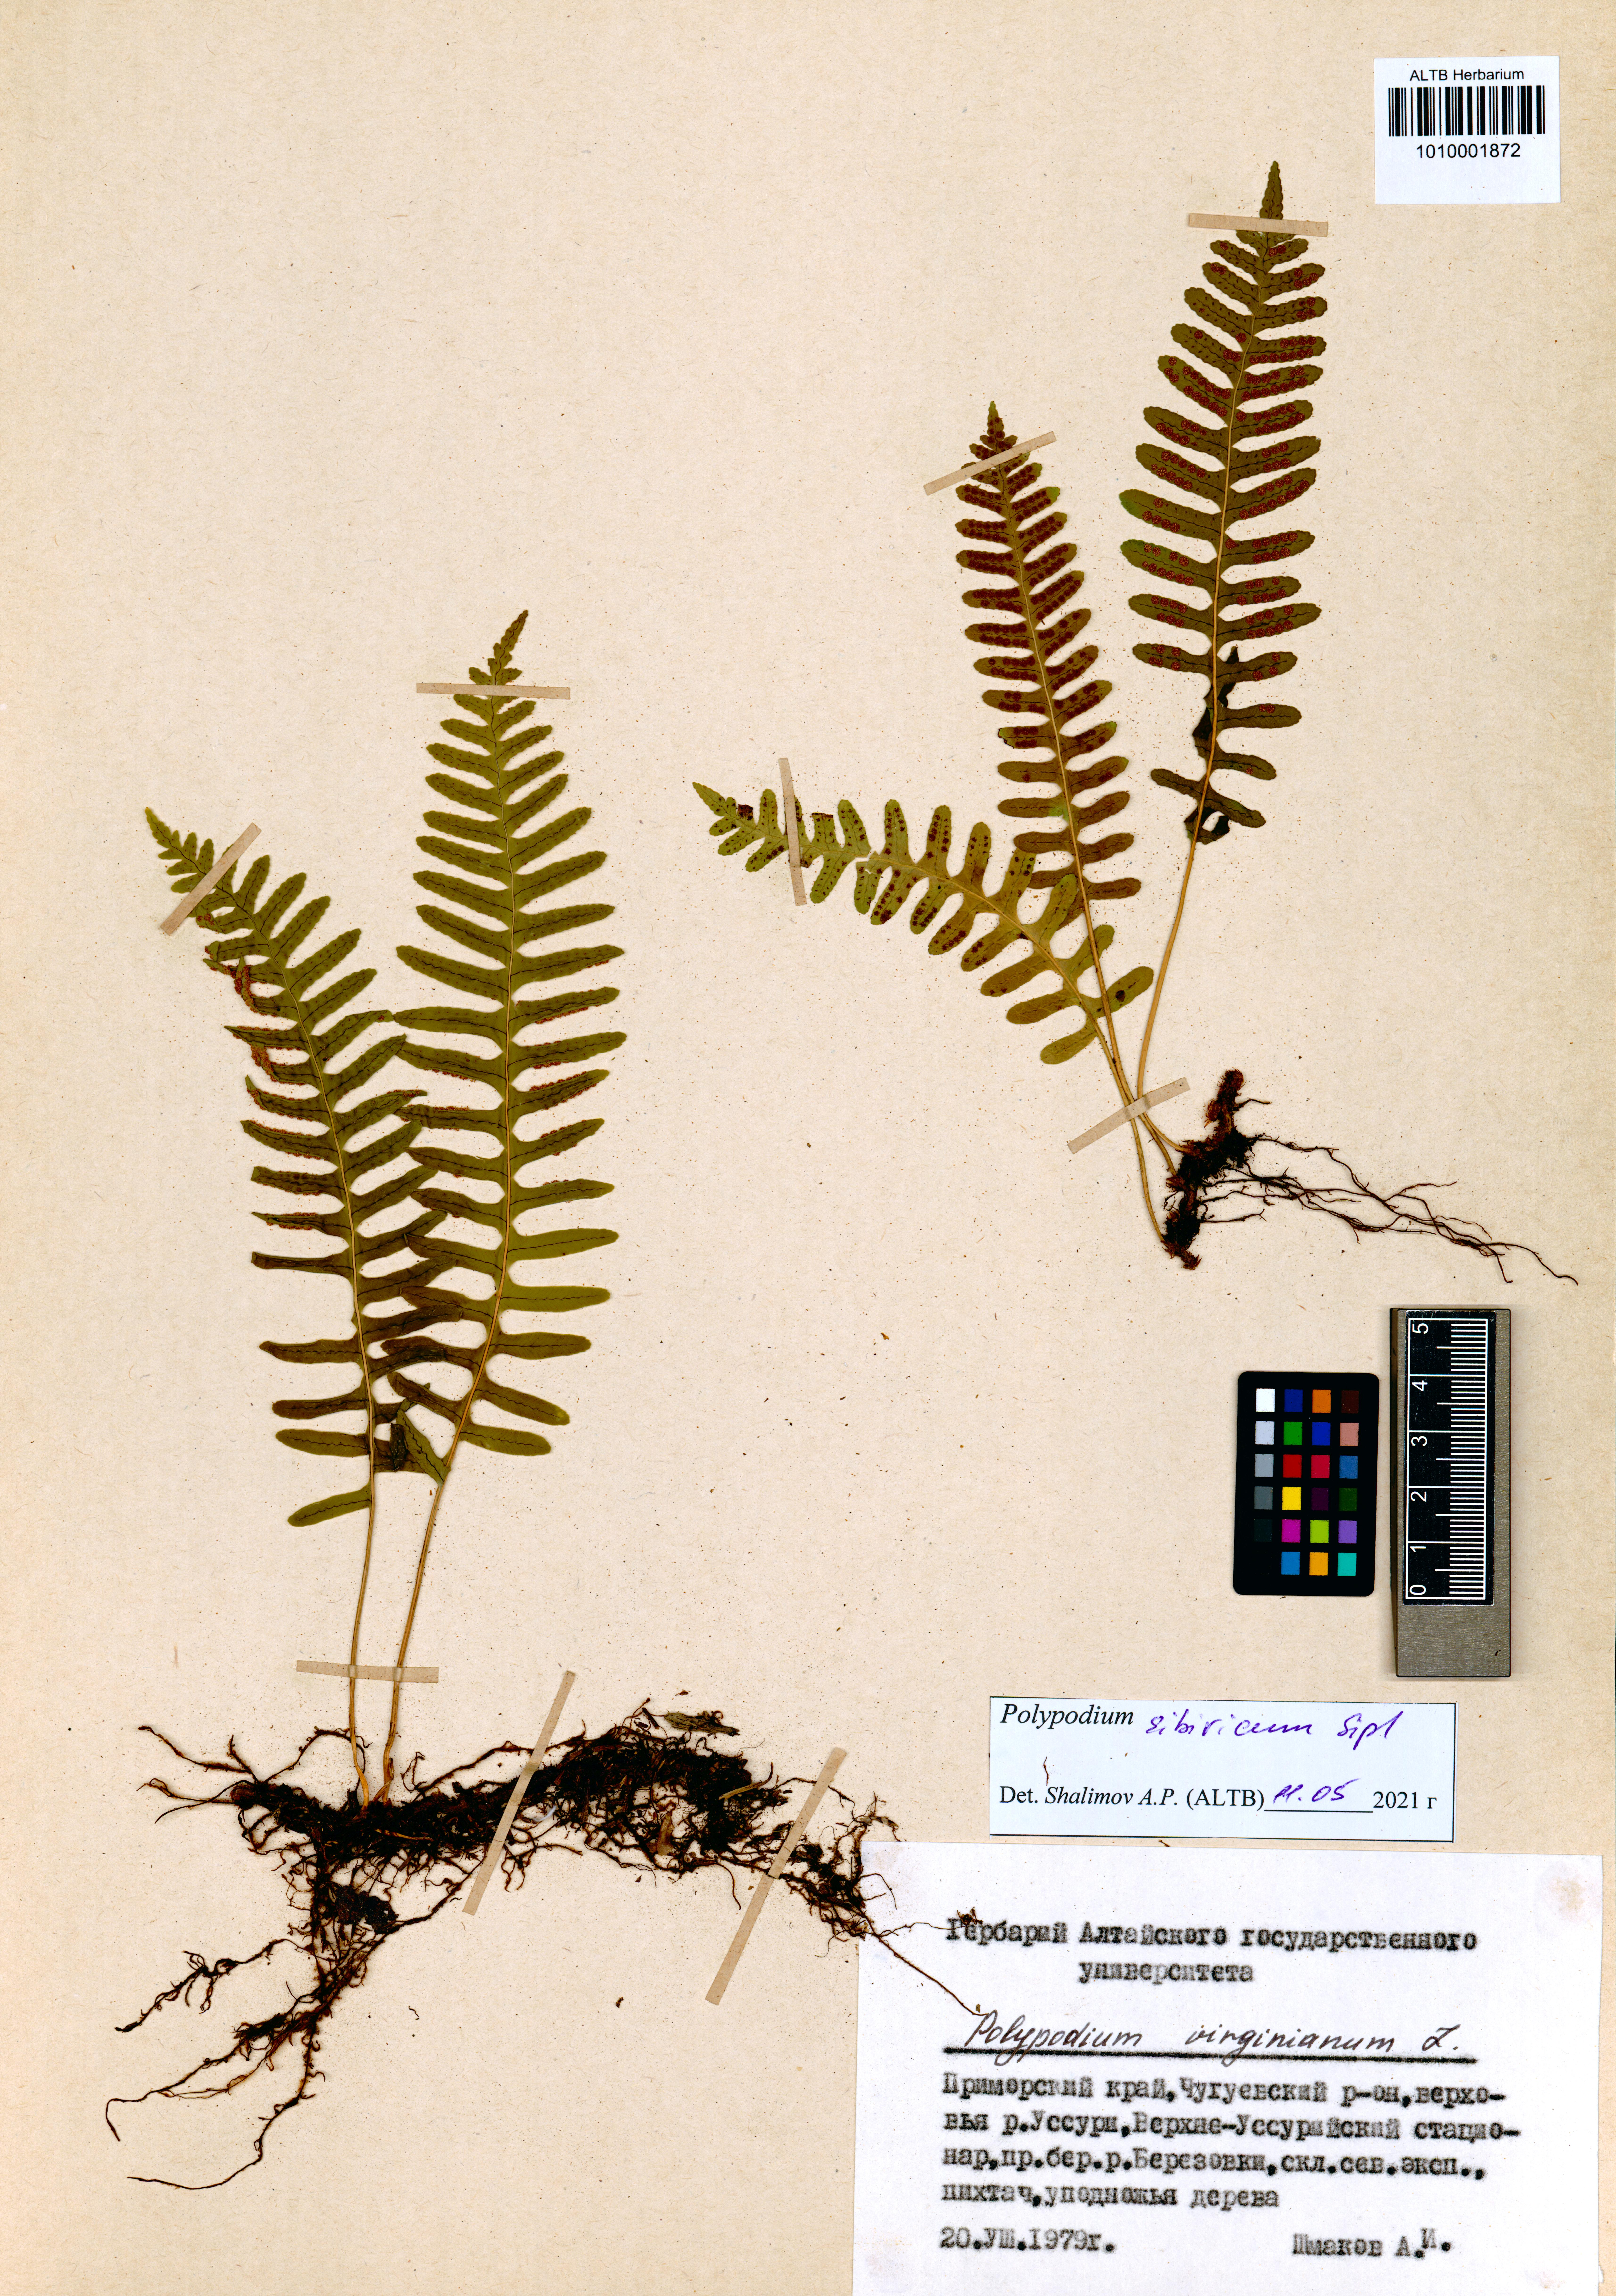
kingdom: Plantae
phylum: Tracheophyta
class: Polypodiopsida
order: Polypodiales
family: Polypodiaceae
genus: Polypodium
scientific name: Polypodium sibiricum
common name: Siberian polypody
